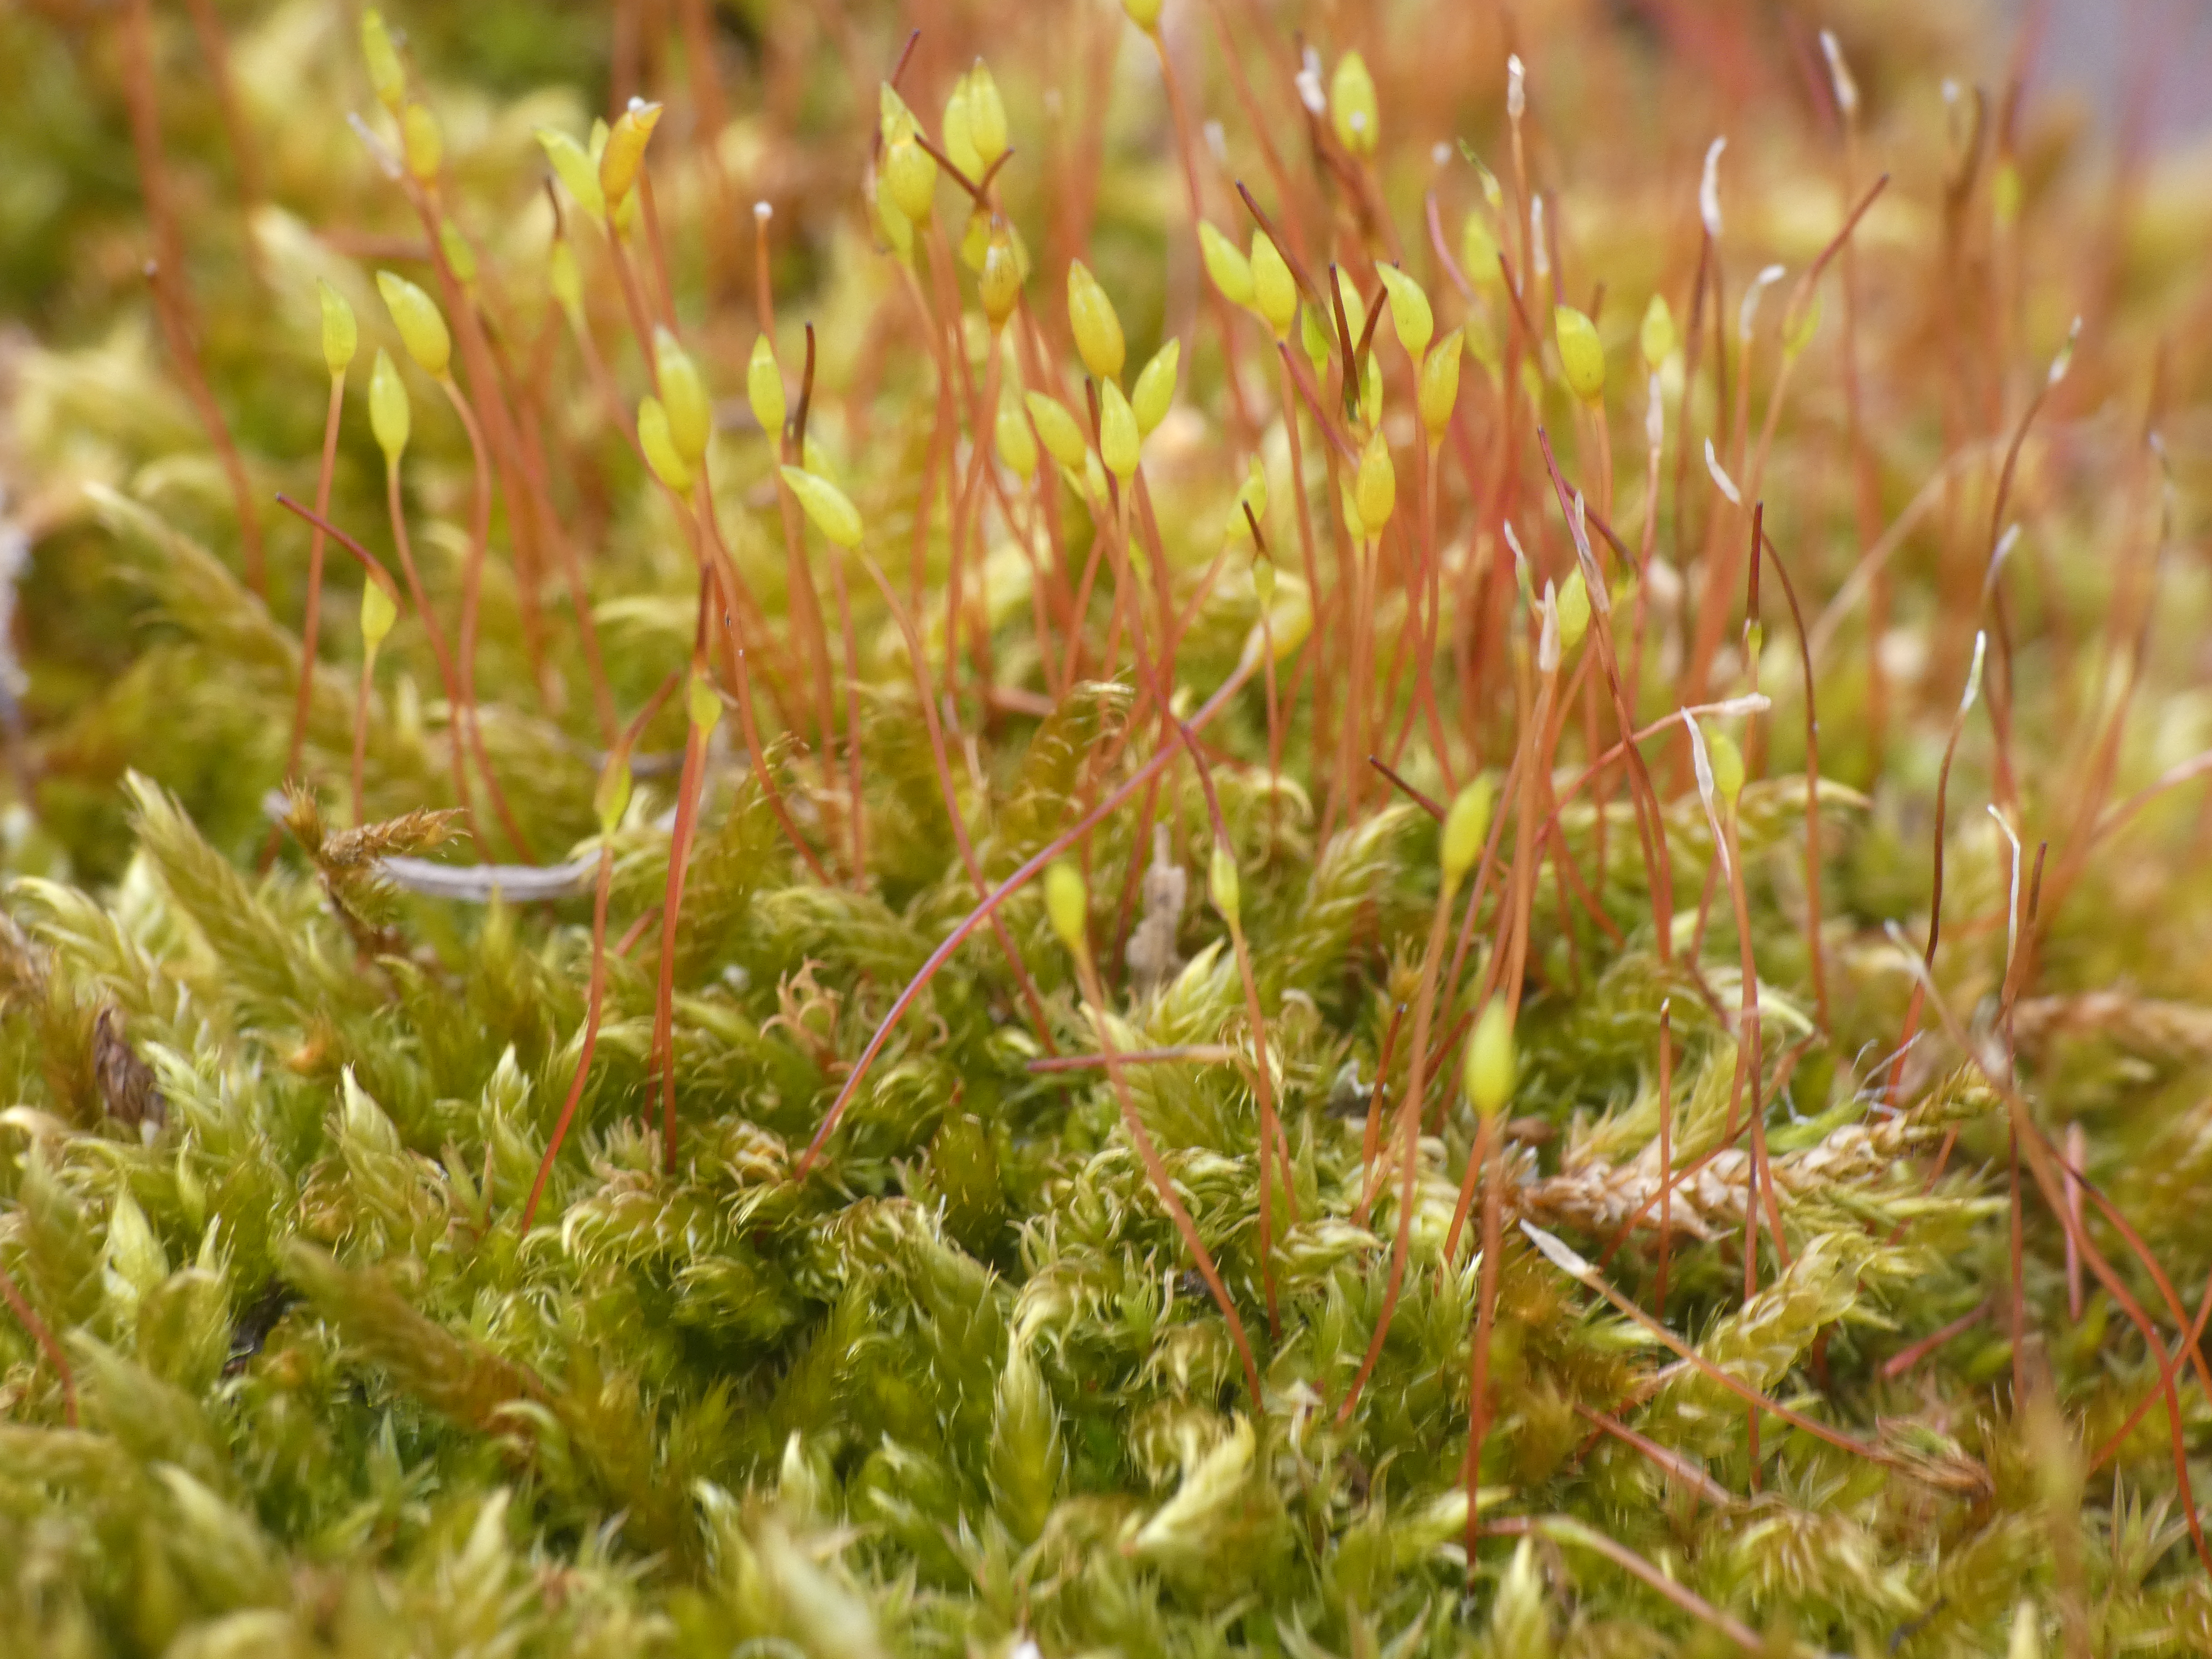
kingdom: Plantae
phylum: Bryophyta
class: Bryopsida
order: Dicranales
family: Ditrichaceae
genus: Ceratodon
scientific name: Ceratodon purpureus
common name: Rød horntand
